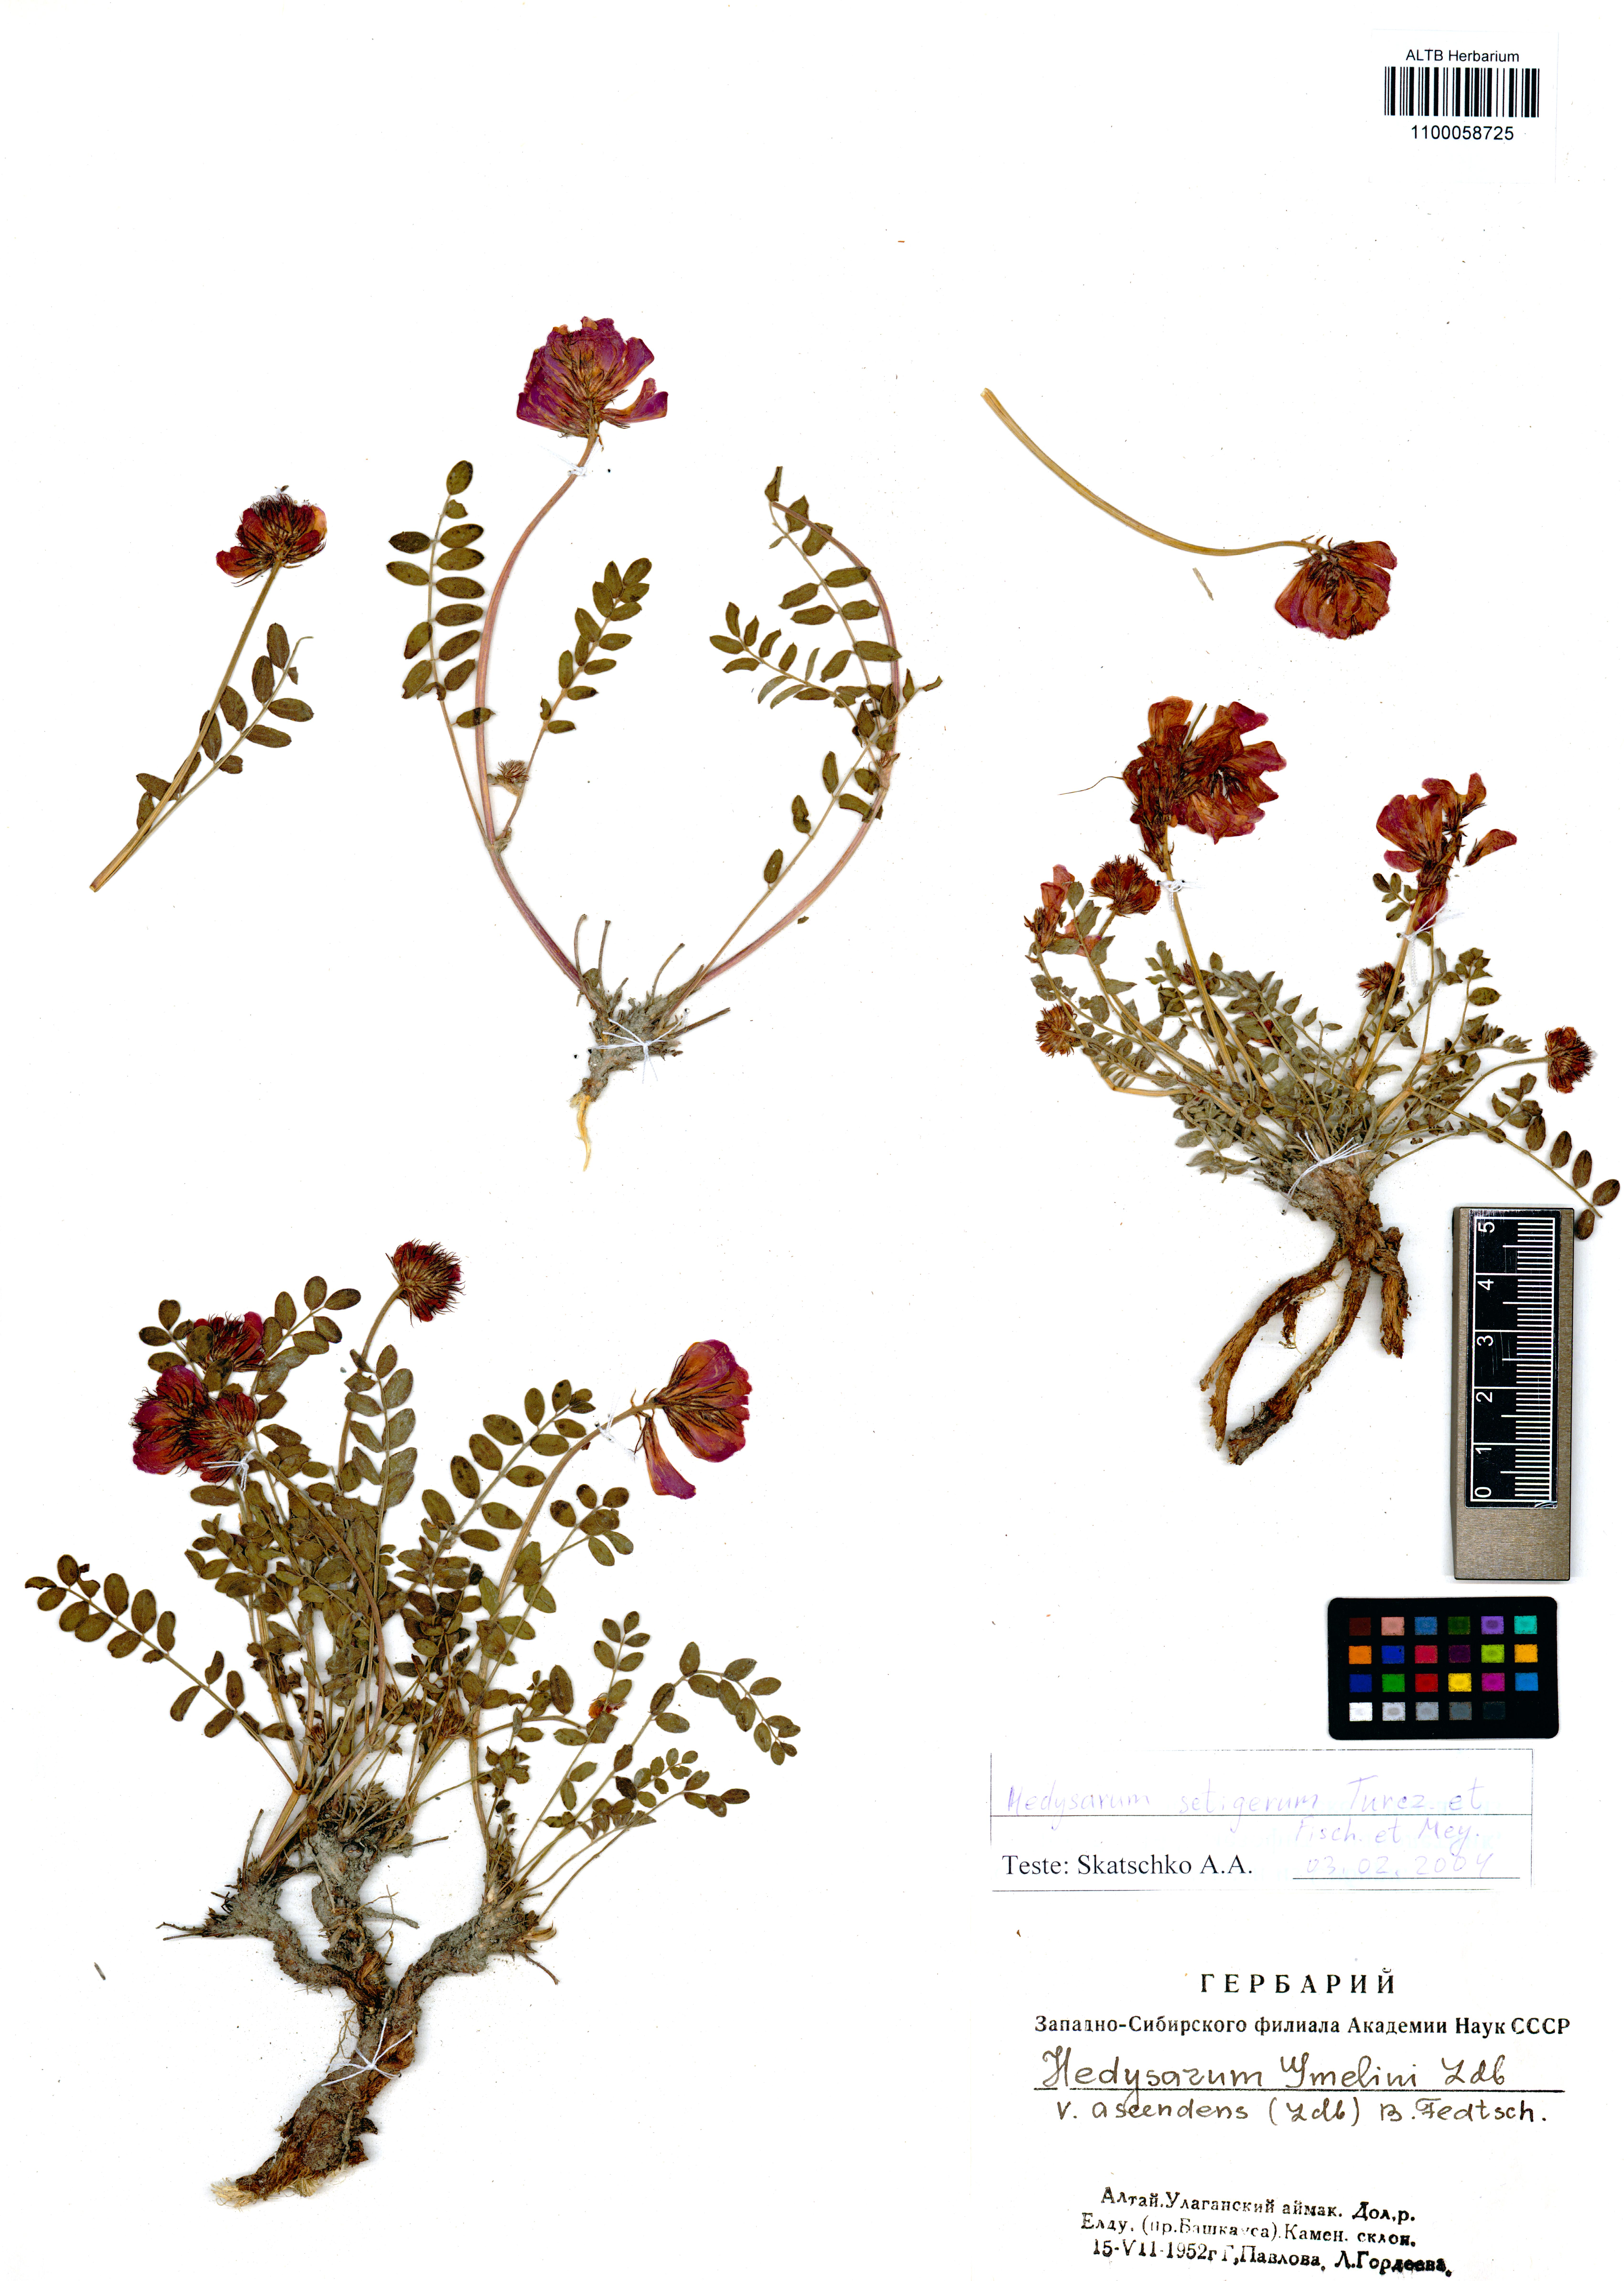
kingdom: Plantae
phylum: Tracheophyta
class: Magnoliopsida
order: Fabales
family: Fabaceae
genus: Hedysarum
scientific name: Hedysarum setigerum
